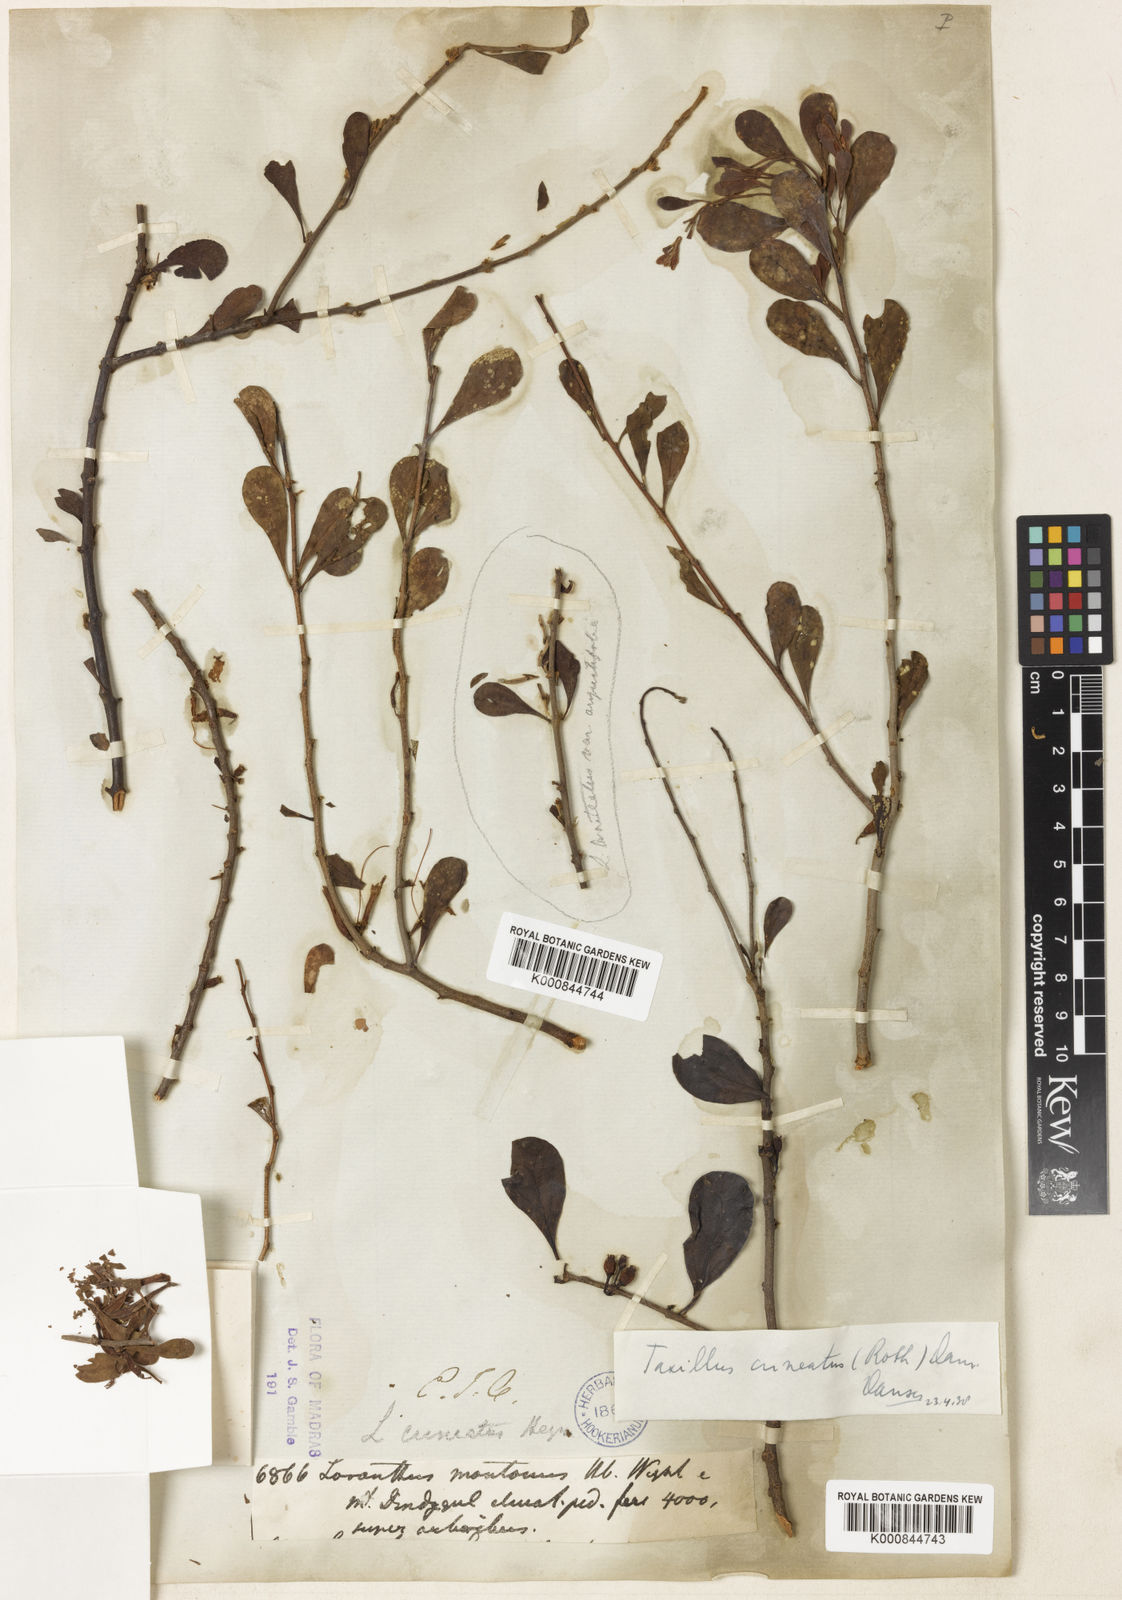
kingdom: Plantae
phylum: Tracheophyta
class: Magnoliopsida
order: Santalales
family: Loranthaceae
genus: Taxillus
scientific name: Taxillus cuneatus
